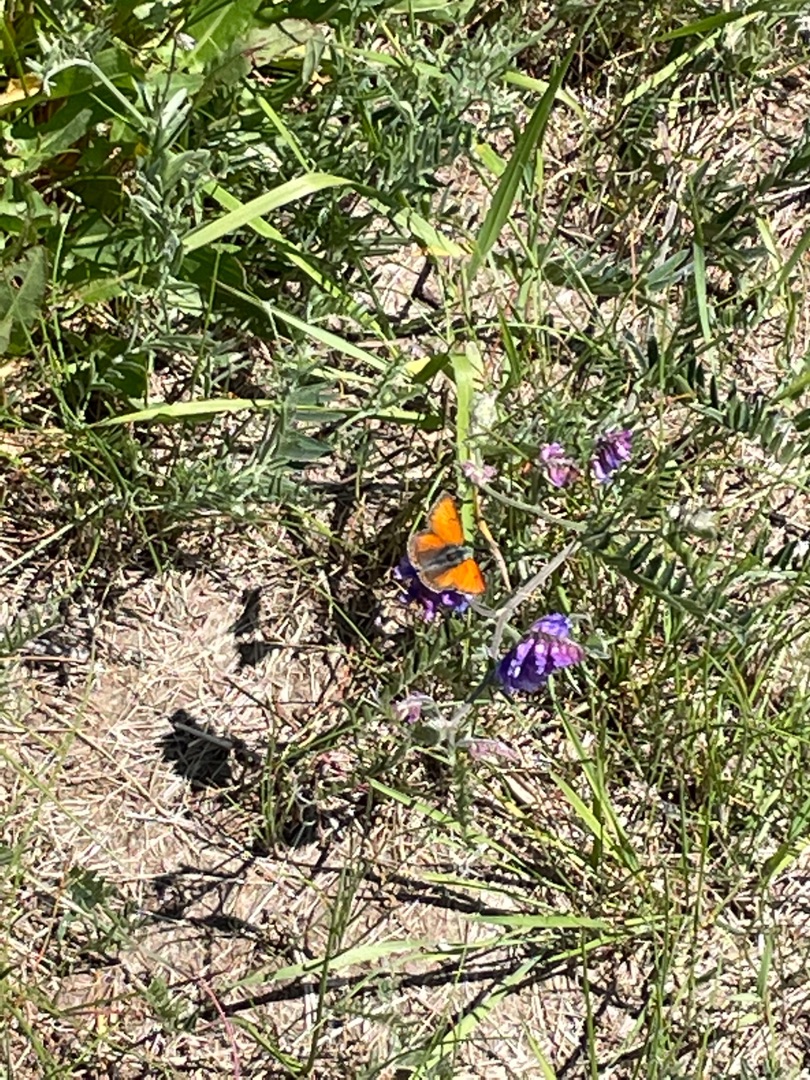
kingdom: Animalia
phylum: Arthropoda
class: Insecta
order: Lepidoptera
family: Lycaenidae
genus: Palaeochrysophanus
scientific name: Palaeochrysophanus hippothoe
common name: Violetrandet ildfugl
